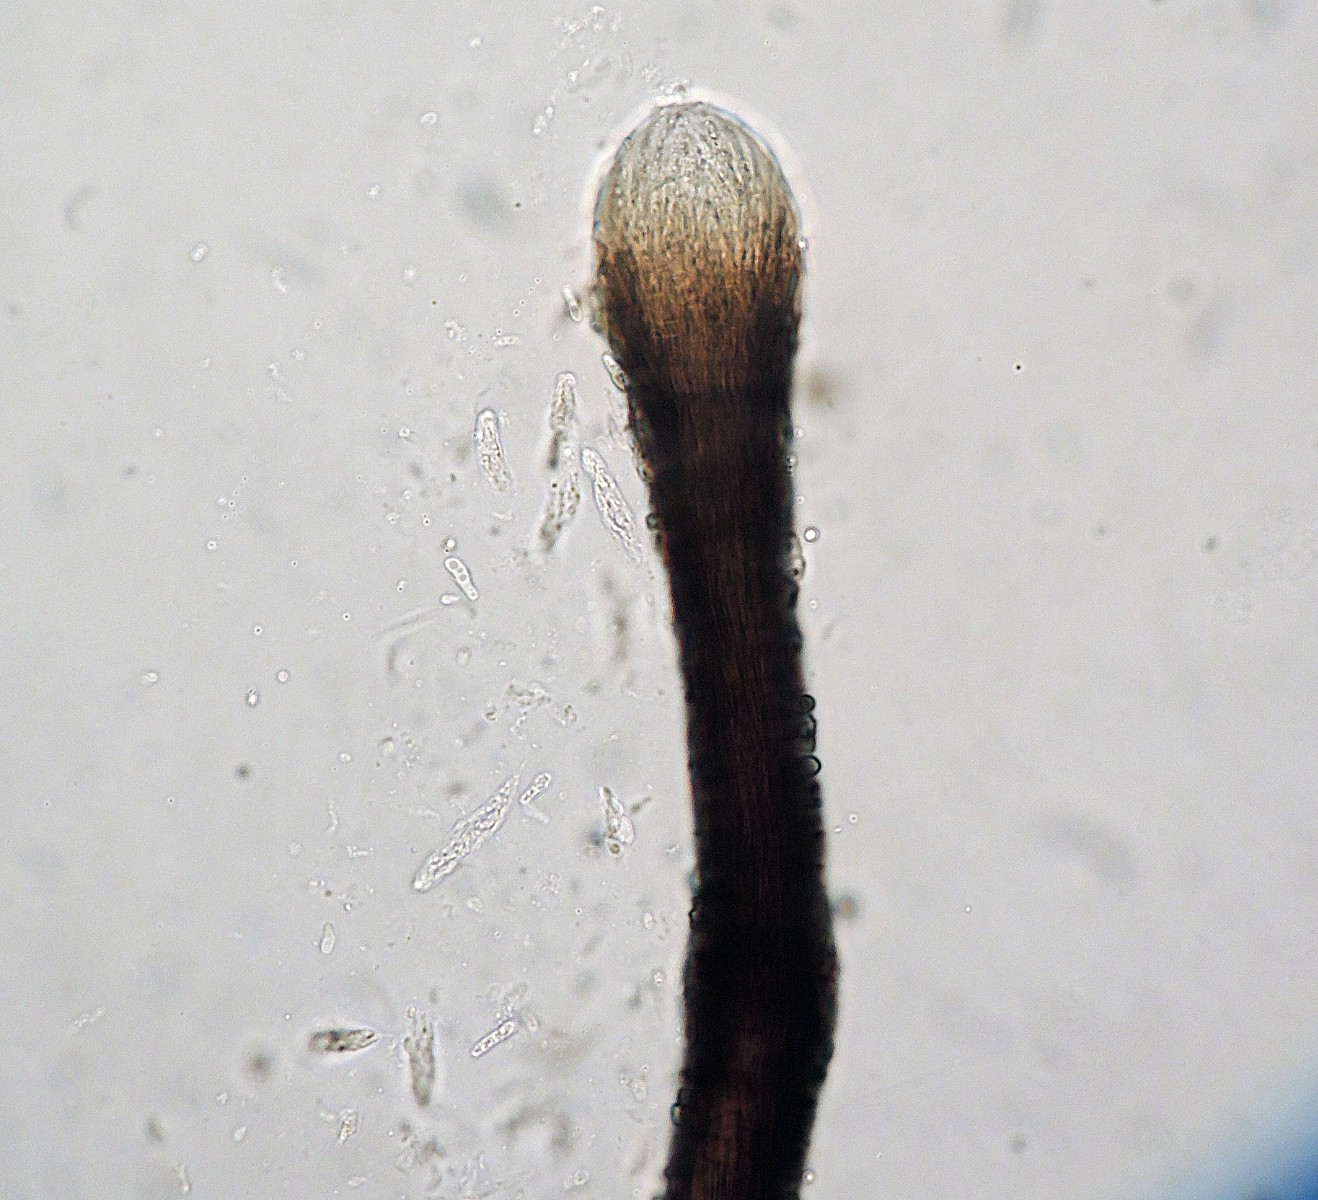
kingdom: Fungi
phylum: Ascomycota
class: Sordariomycetes
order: Diaporthales
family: Gnomoniaceae
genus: Ophiognomonia
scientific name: Ophiognomonia ischnostyla
